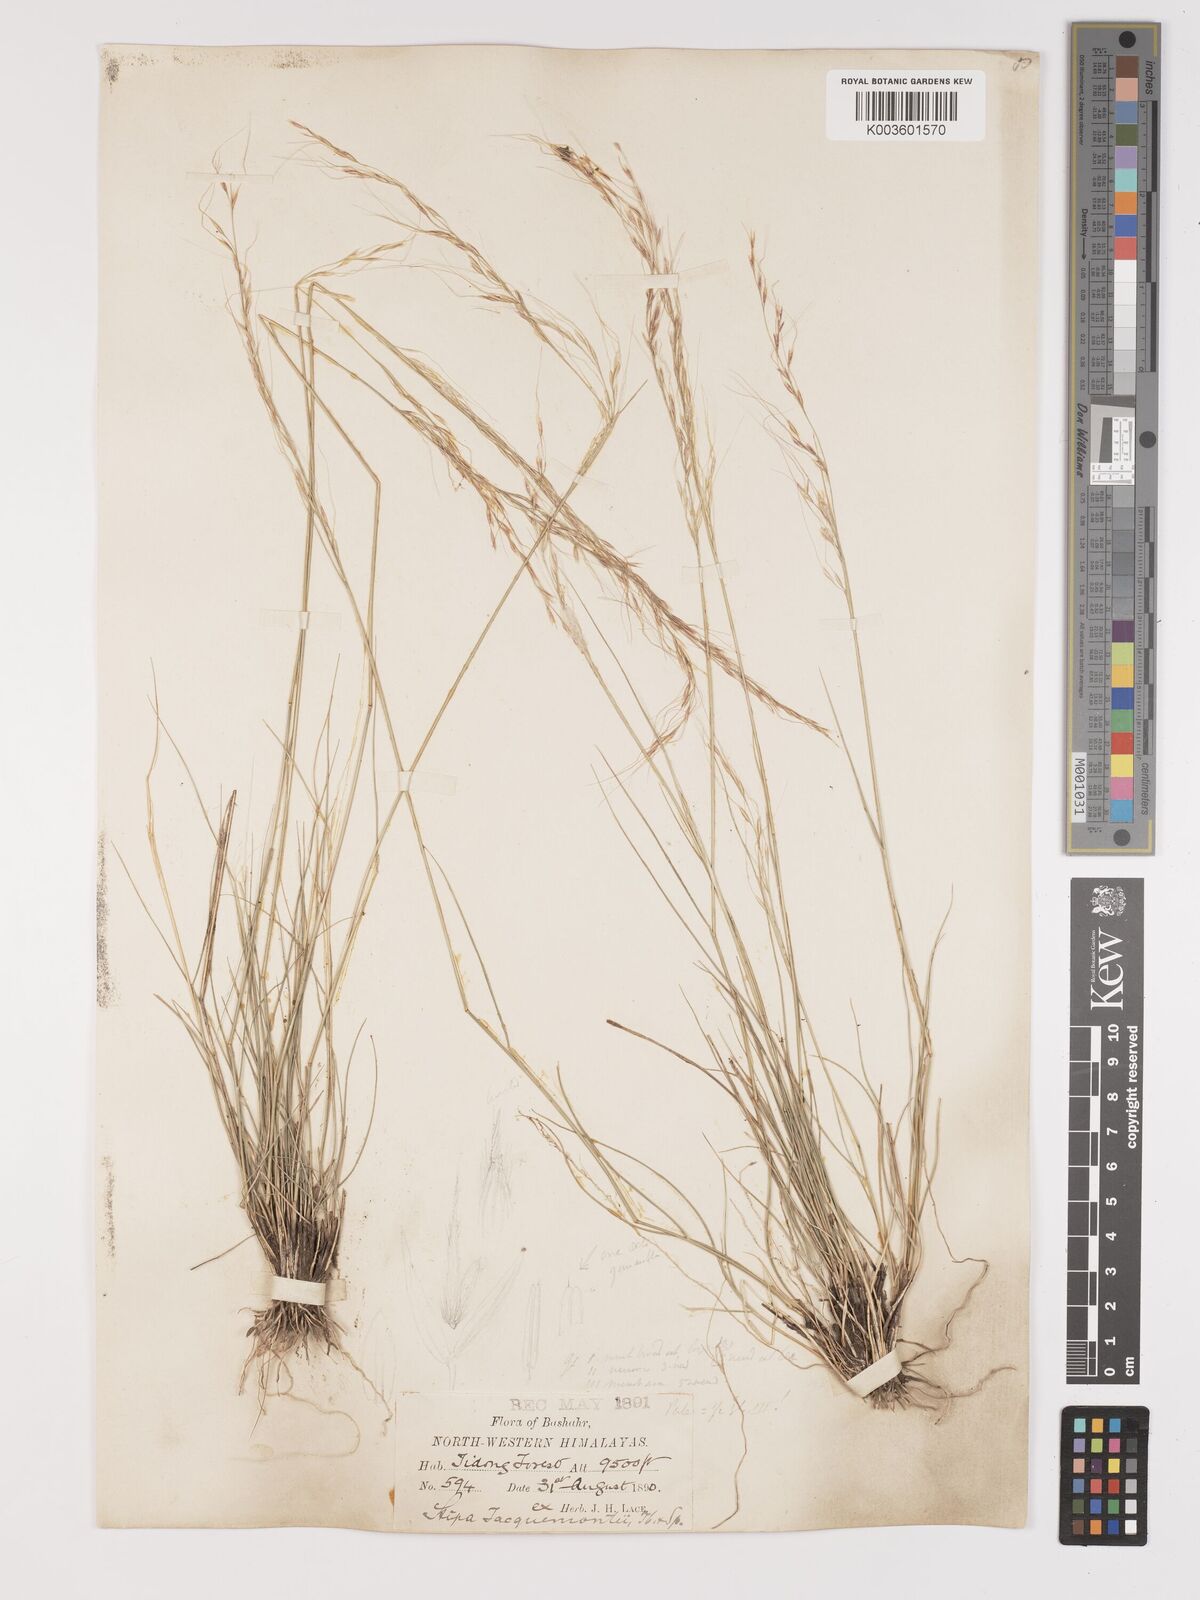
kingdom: Plantae
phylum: Tracheophyta
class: Liliopsida
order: Poales
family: Poaceae
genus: Achnatherum
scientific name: Achnatherum jacquemontii
